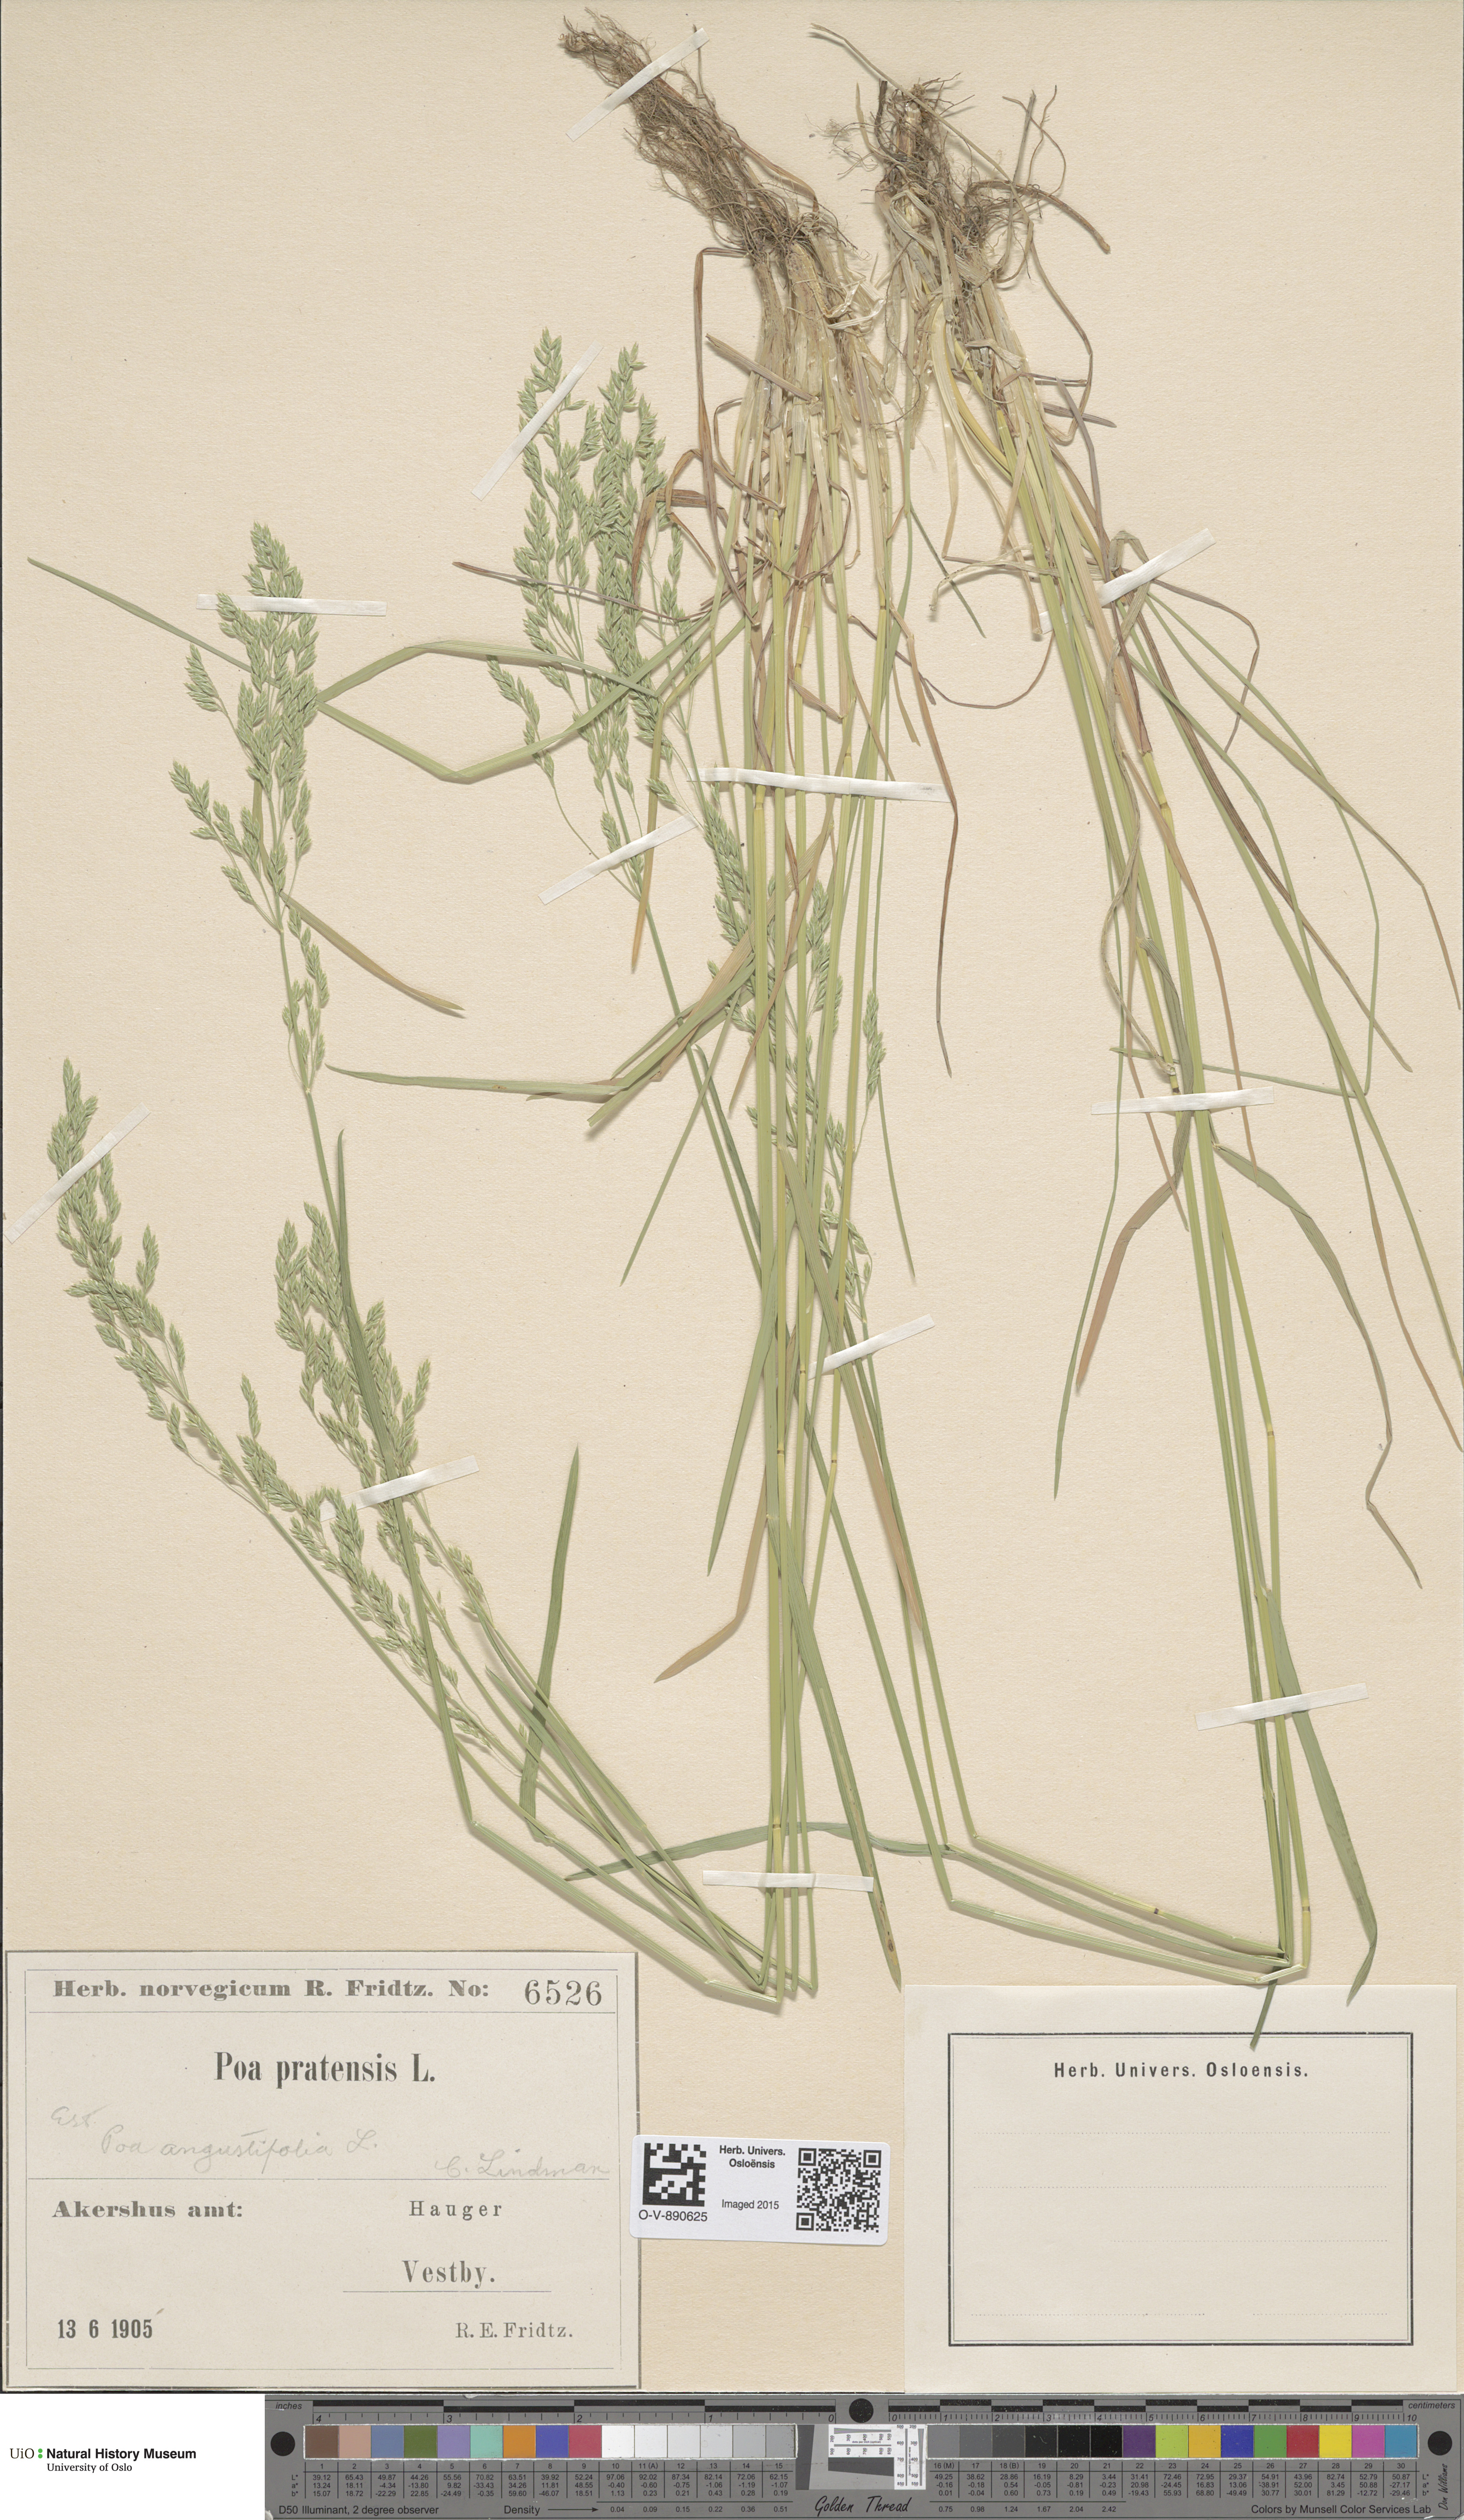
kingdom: Plantae
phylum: Tracheophyta
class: Liliopsida
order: Poales
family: Poaceae
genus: Poa
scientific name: Poa angustifolia
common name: Narrow-leaved meadow-grass
